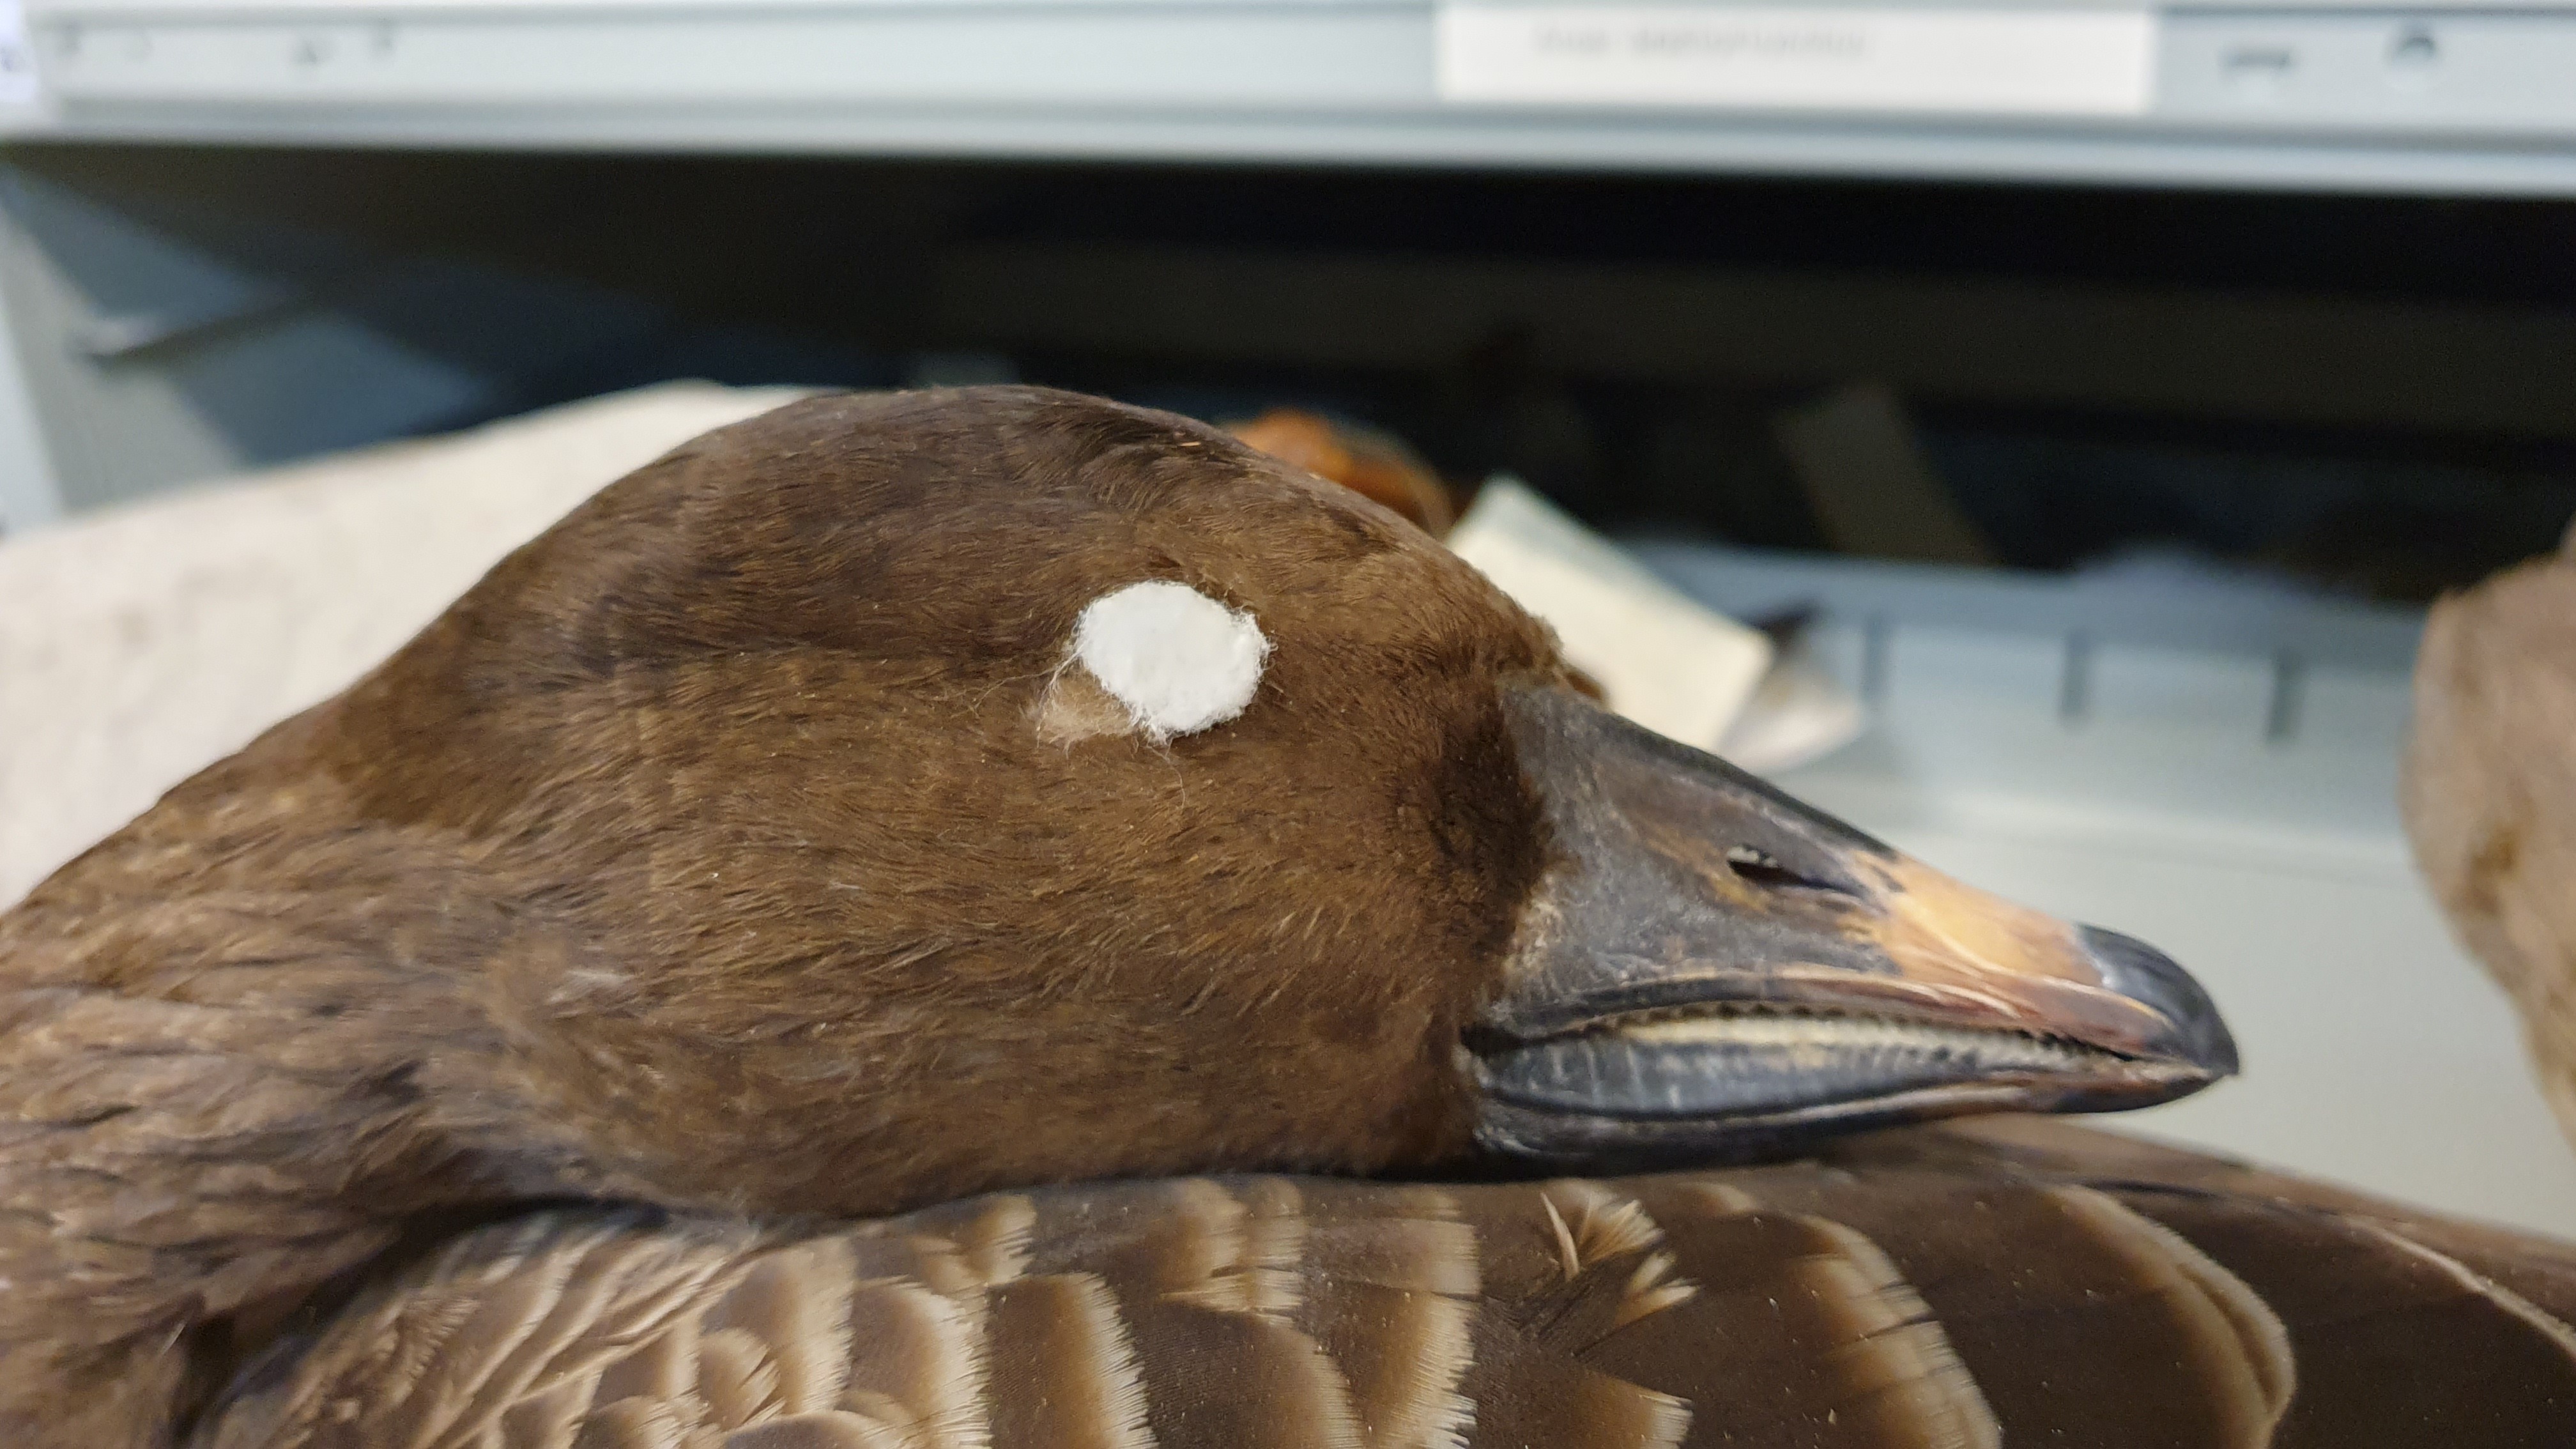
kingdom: Animalia
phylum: Chordata
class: Aves
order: Anseriformes
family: Anatidae
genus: Anser
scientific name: Anser serrirostris
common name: Tundra bean goose
